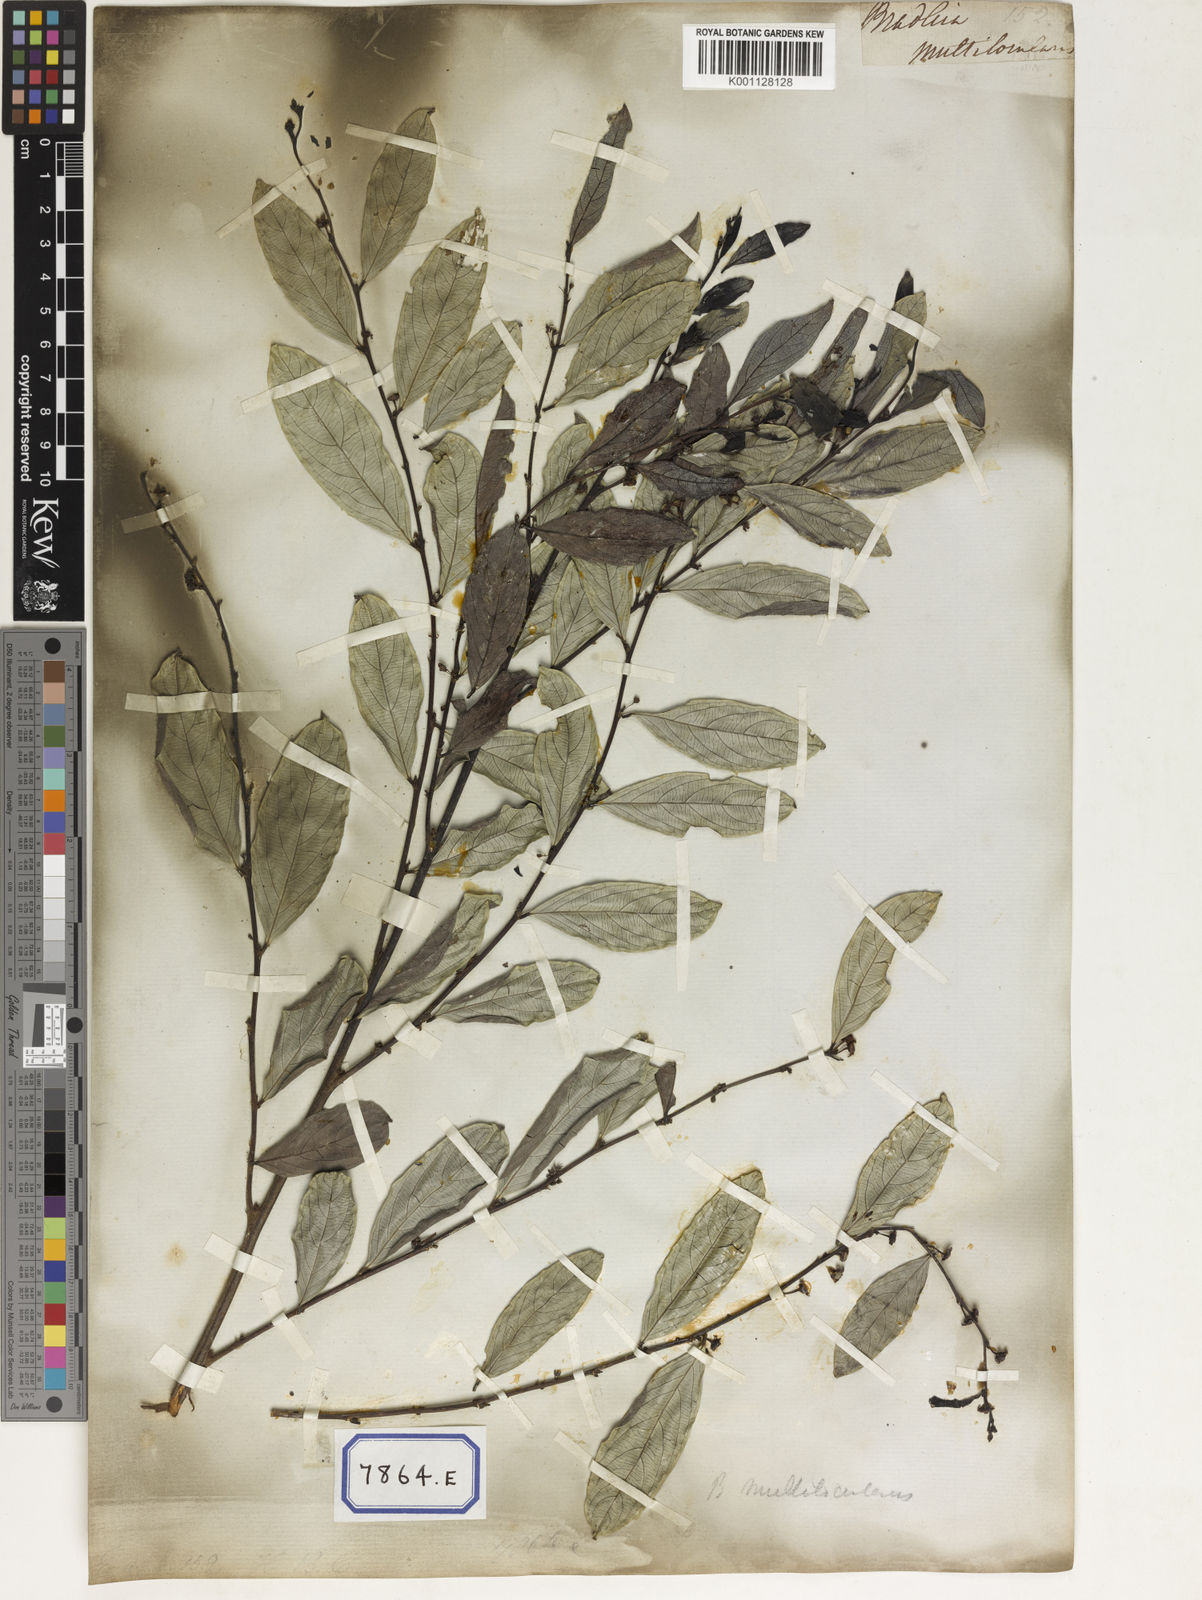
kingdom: Plantae
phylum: Tracheophyta
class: Magnoliopsida
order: Malpighiales
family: Euphorbiaceae
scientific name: Euphorbiaceae
